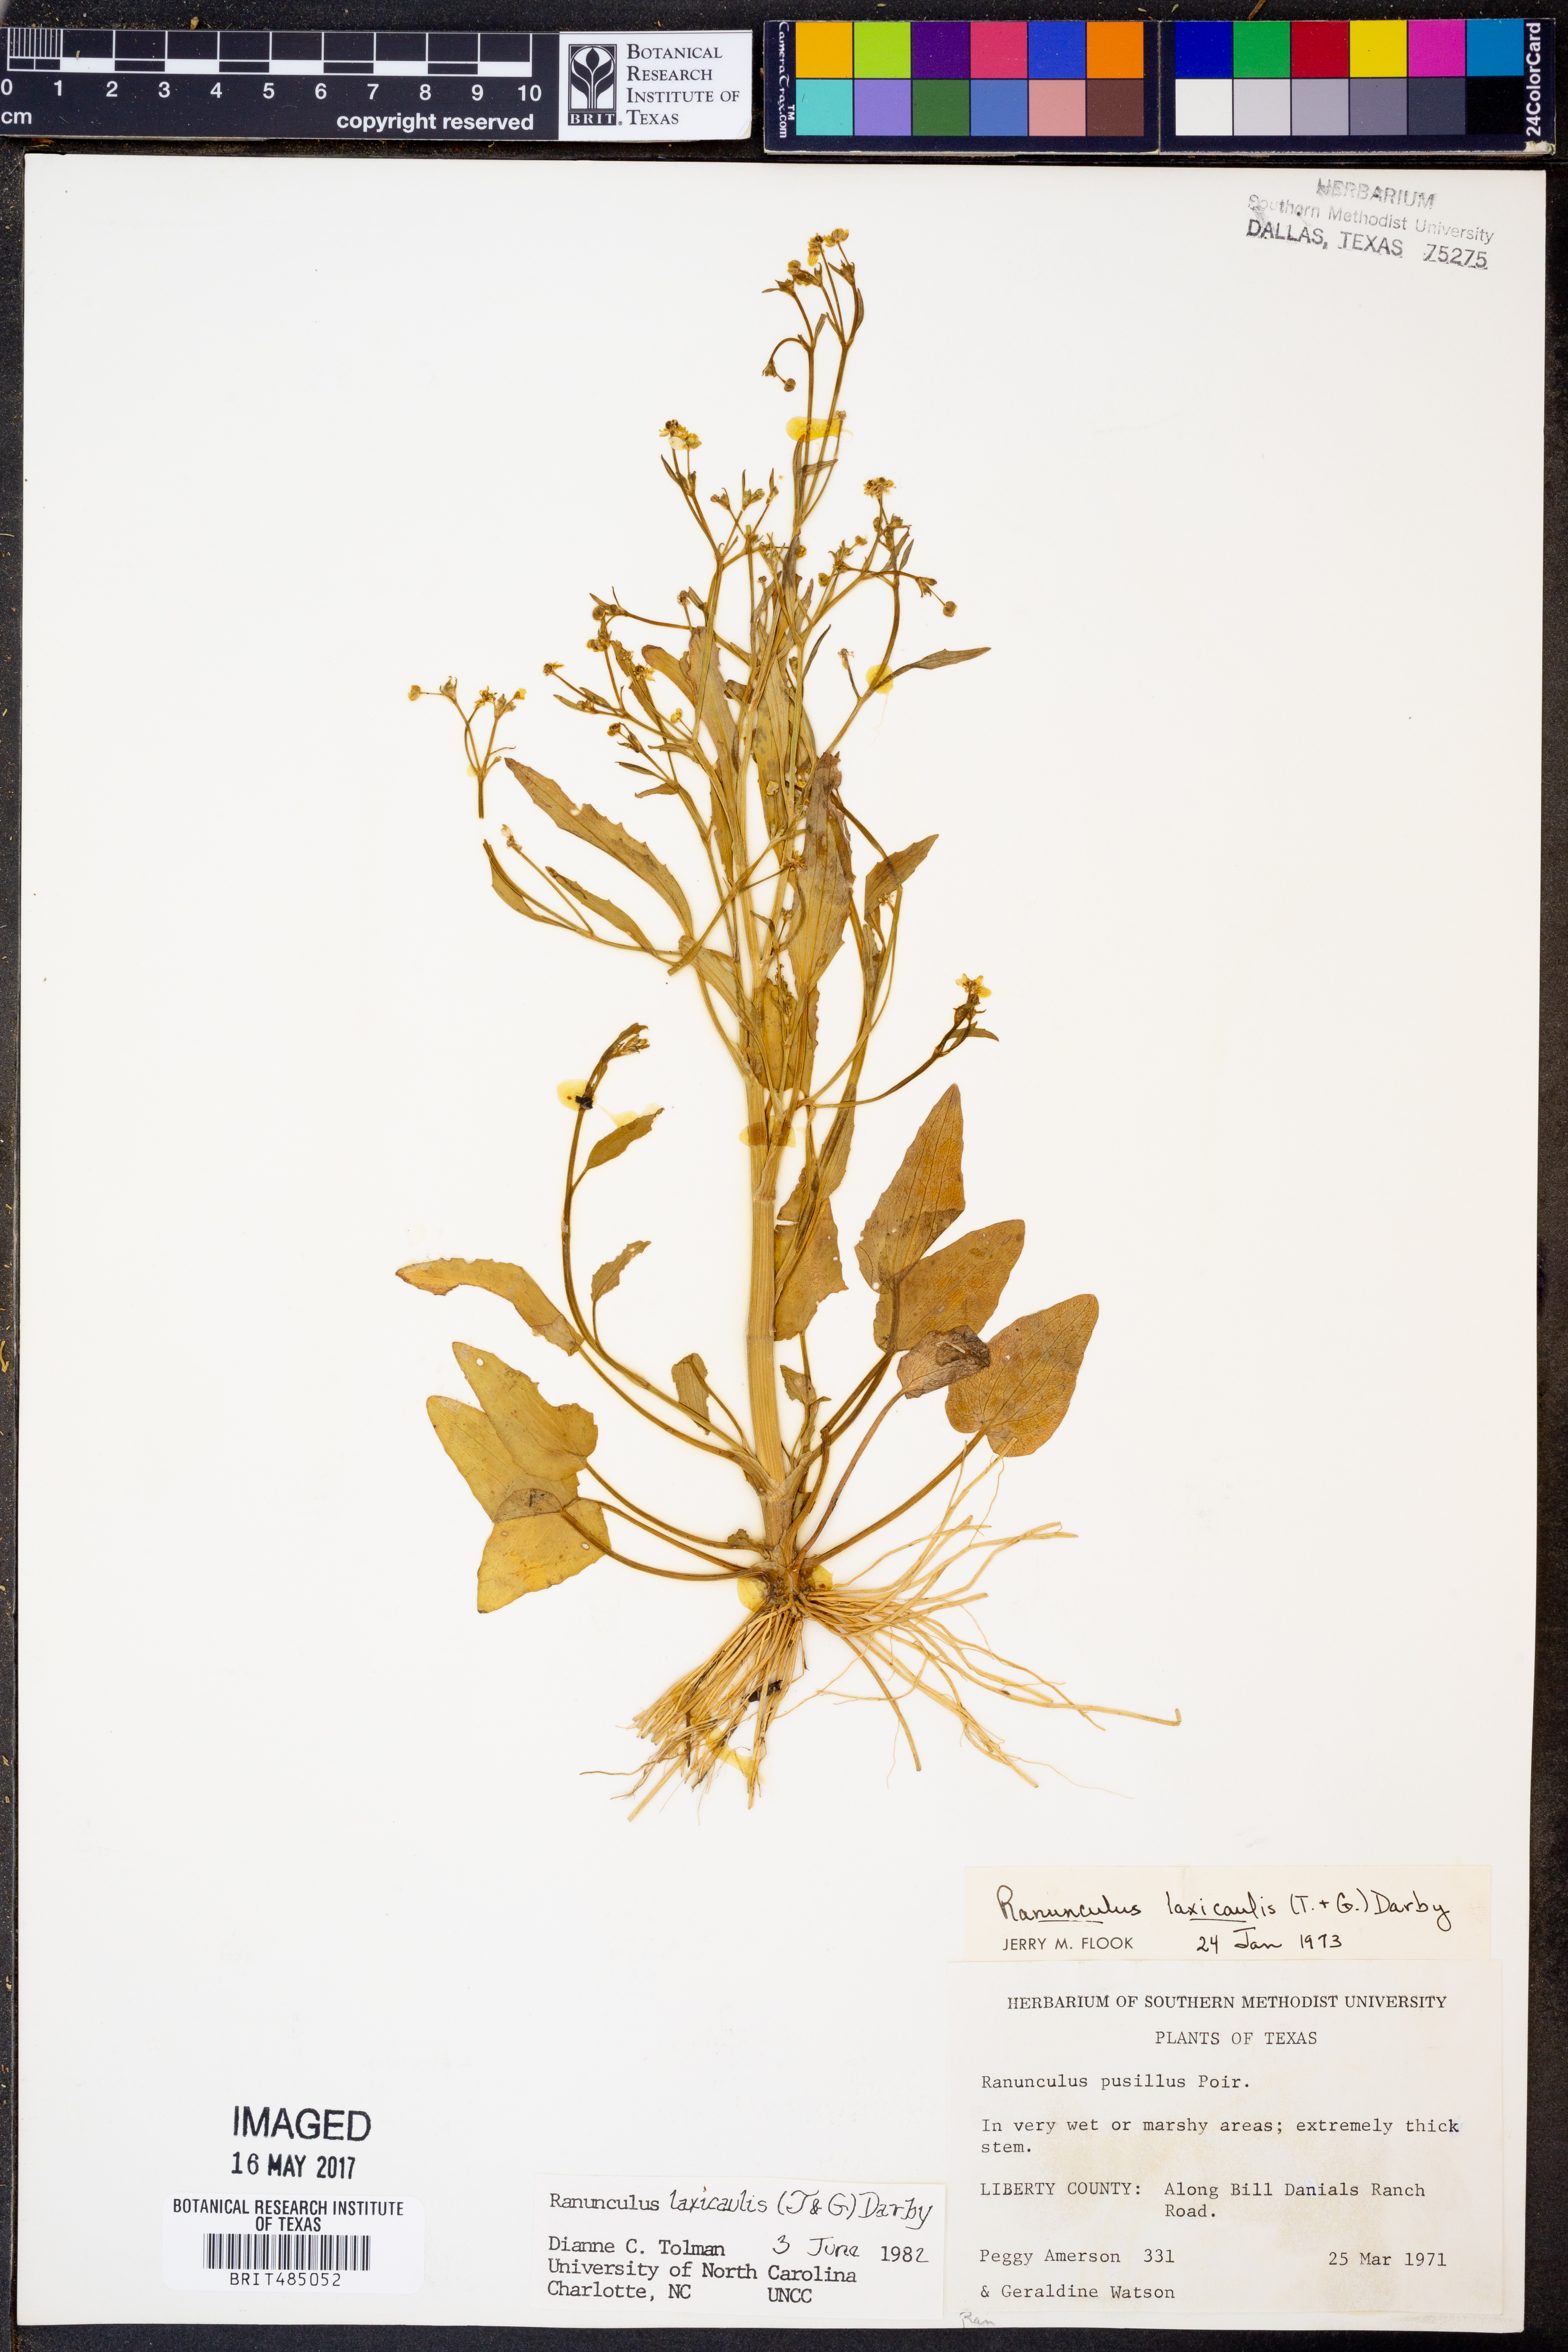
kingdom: Plantae
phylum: Tracheophyta
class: Magnoliopsida
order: Ranunculales
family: Ranunculaceae
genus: Ranunculus
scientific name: Ranunculus laxicaulis
